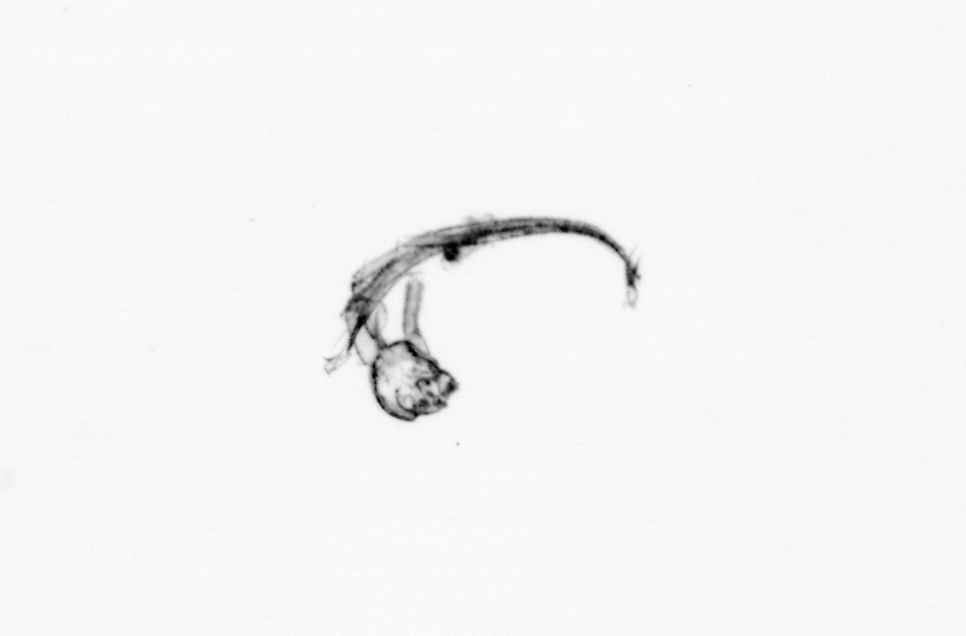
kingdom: Animalia
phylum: Chordata
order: Copelata
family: Fritillariidae
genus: Appendicularia
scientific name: Appendicularia
